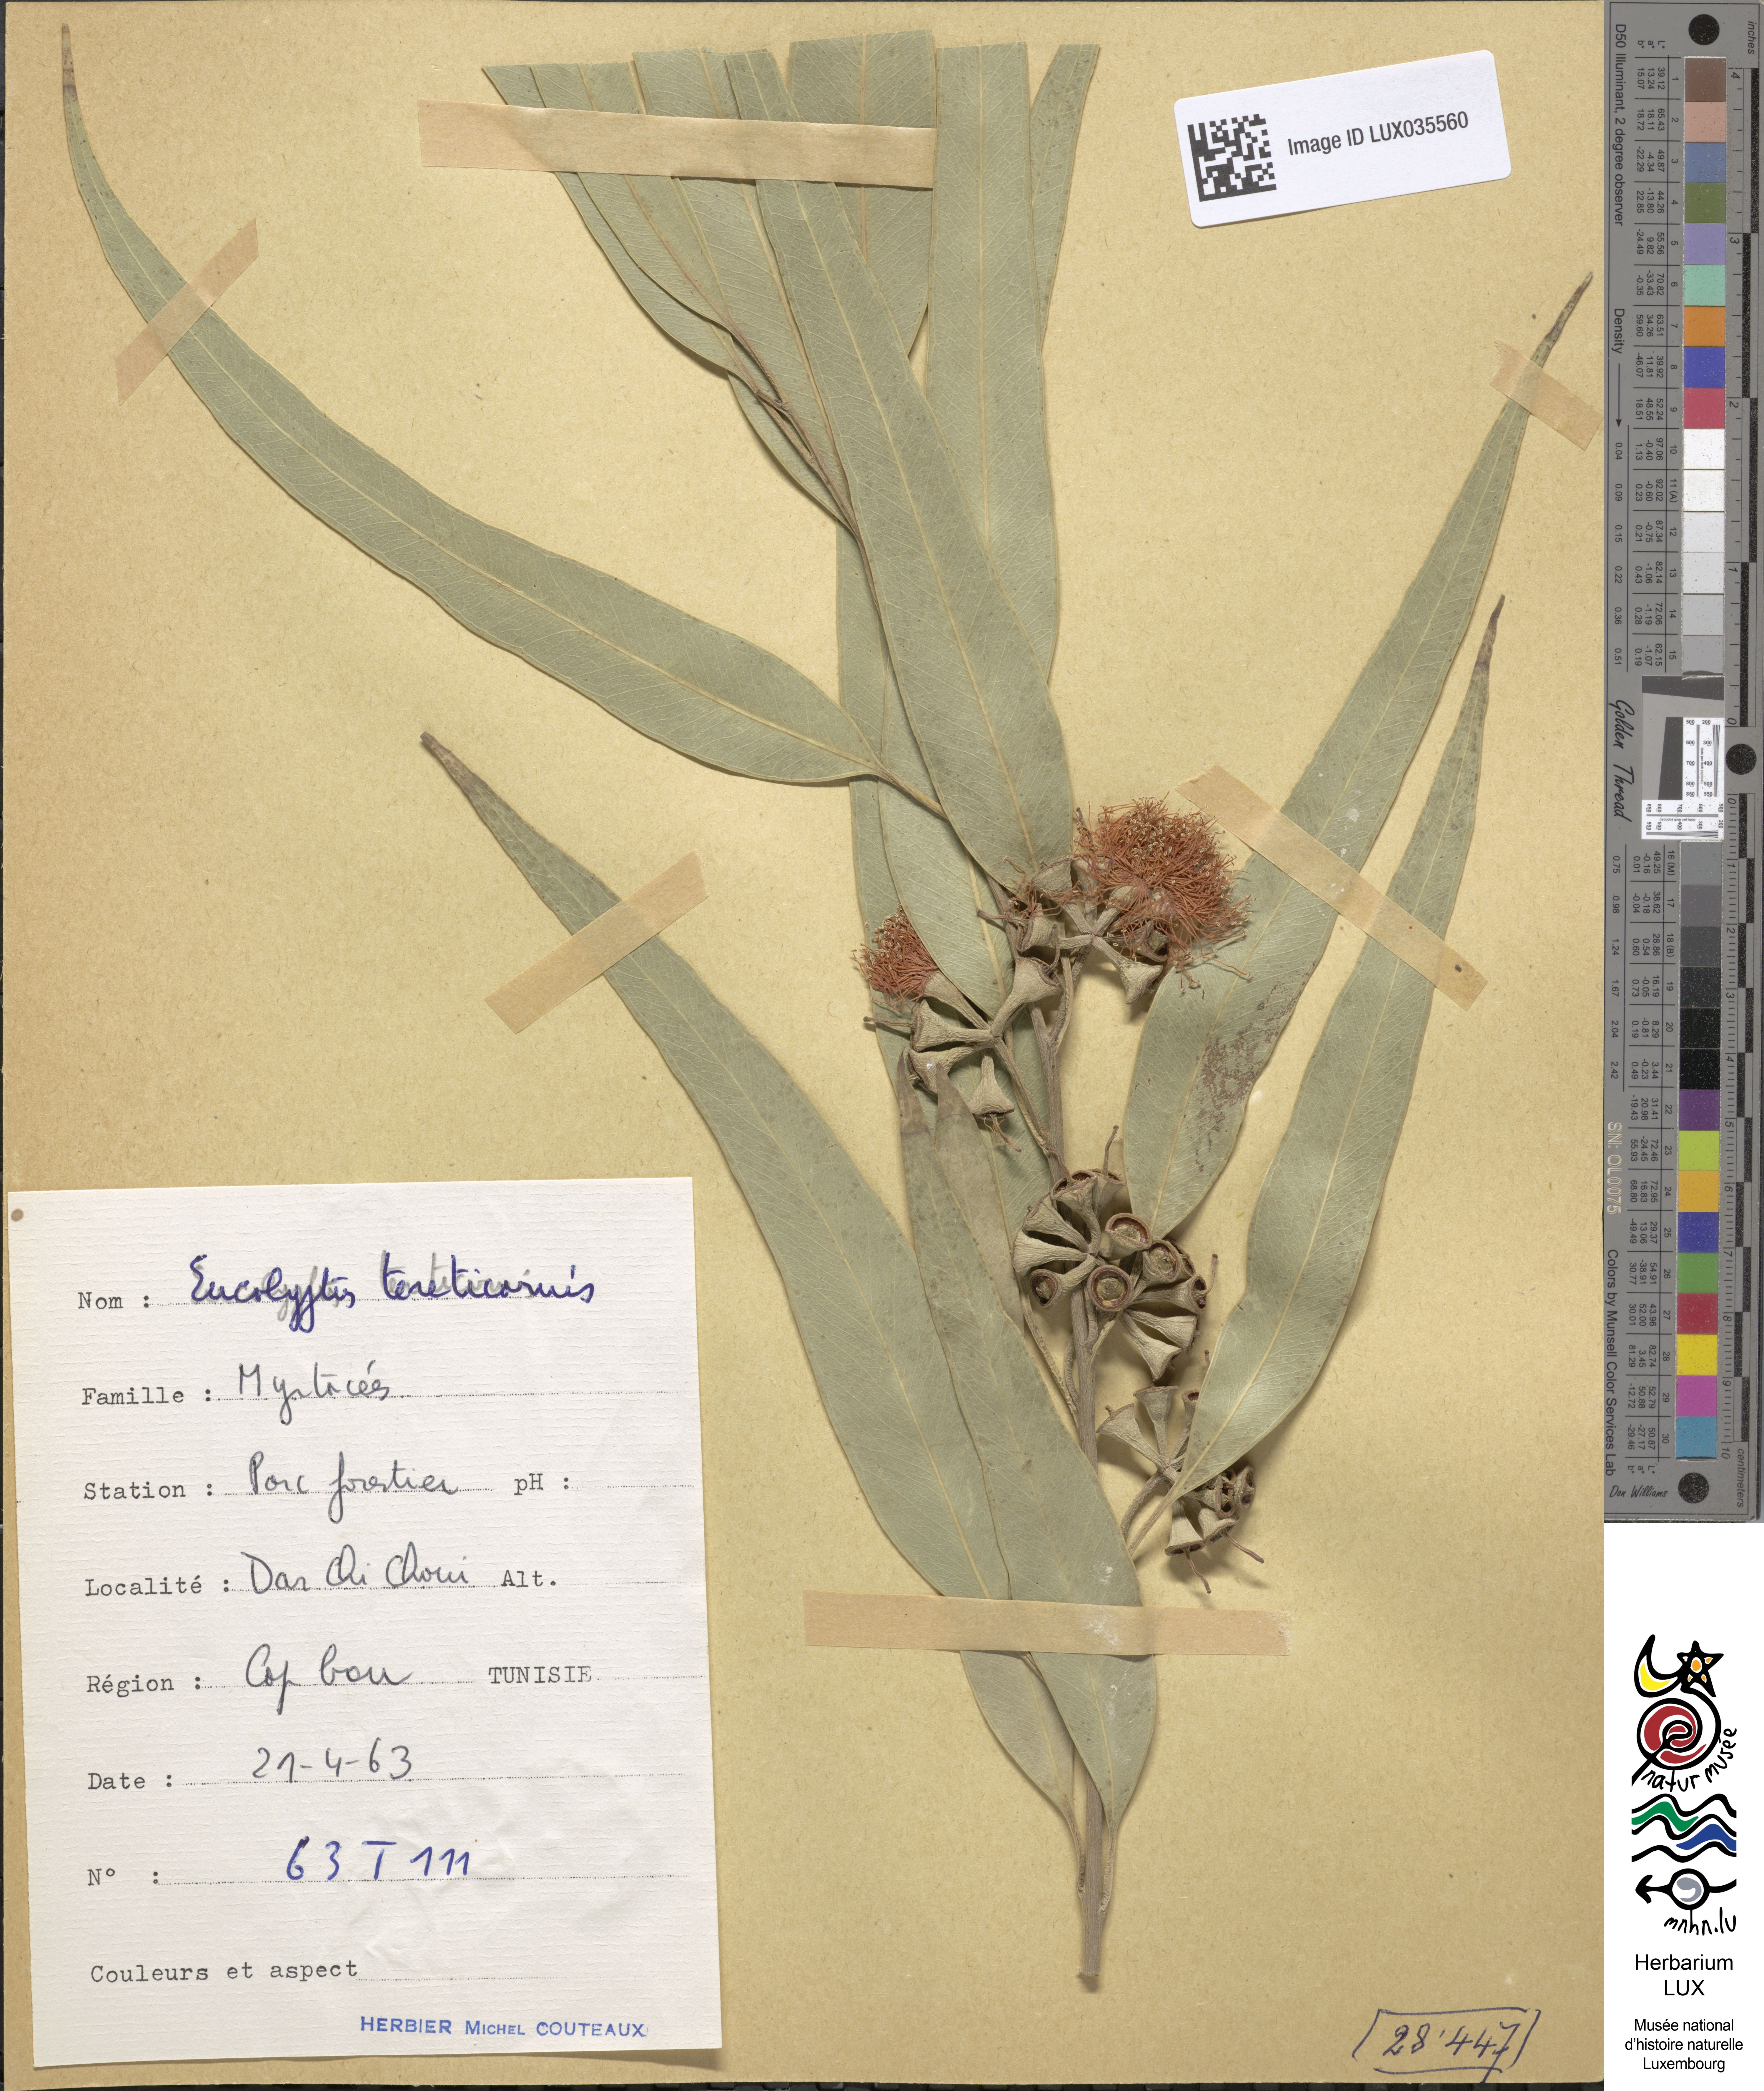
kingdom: Plantae
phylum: Tracheophyta
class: Magnoliopsida
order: Myrtales
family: Myrtaceae
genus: Eucalyptus
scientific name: Eucalyptus tereticornis
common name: Forest redgum
